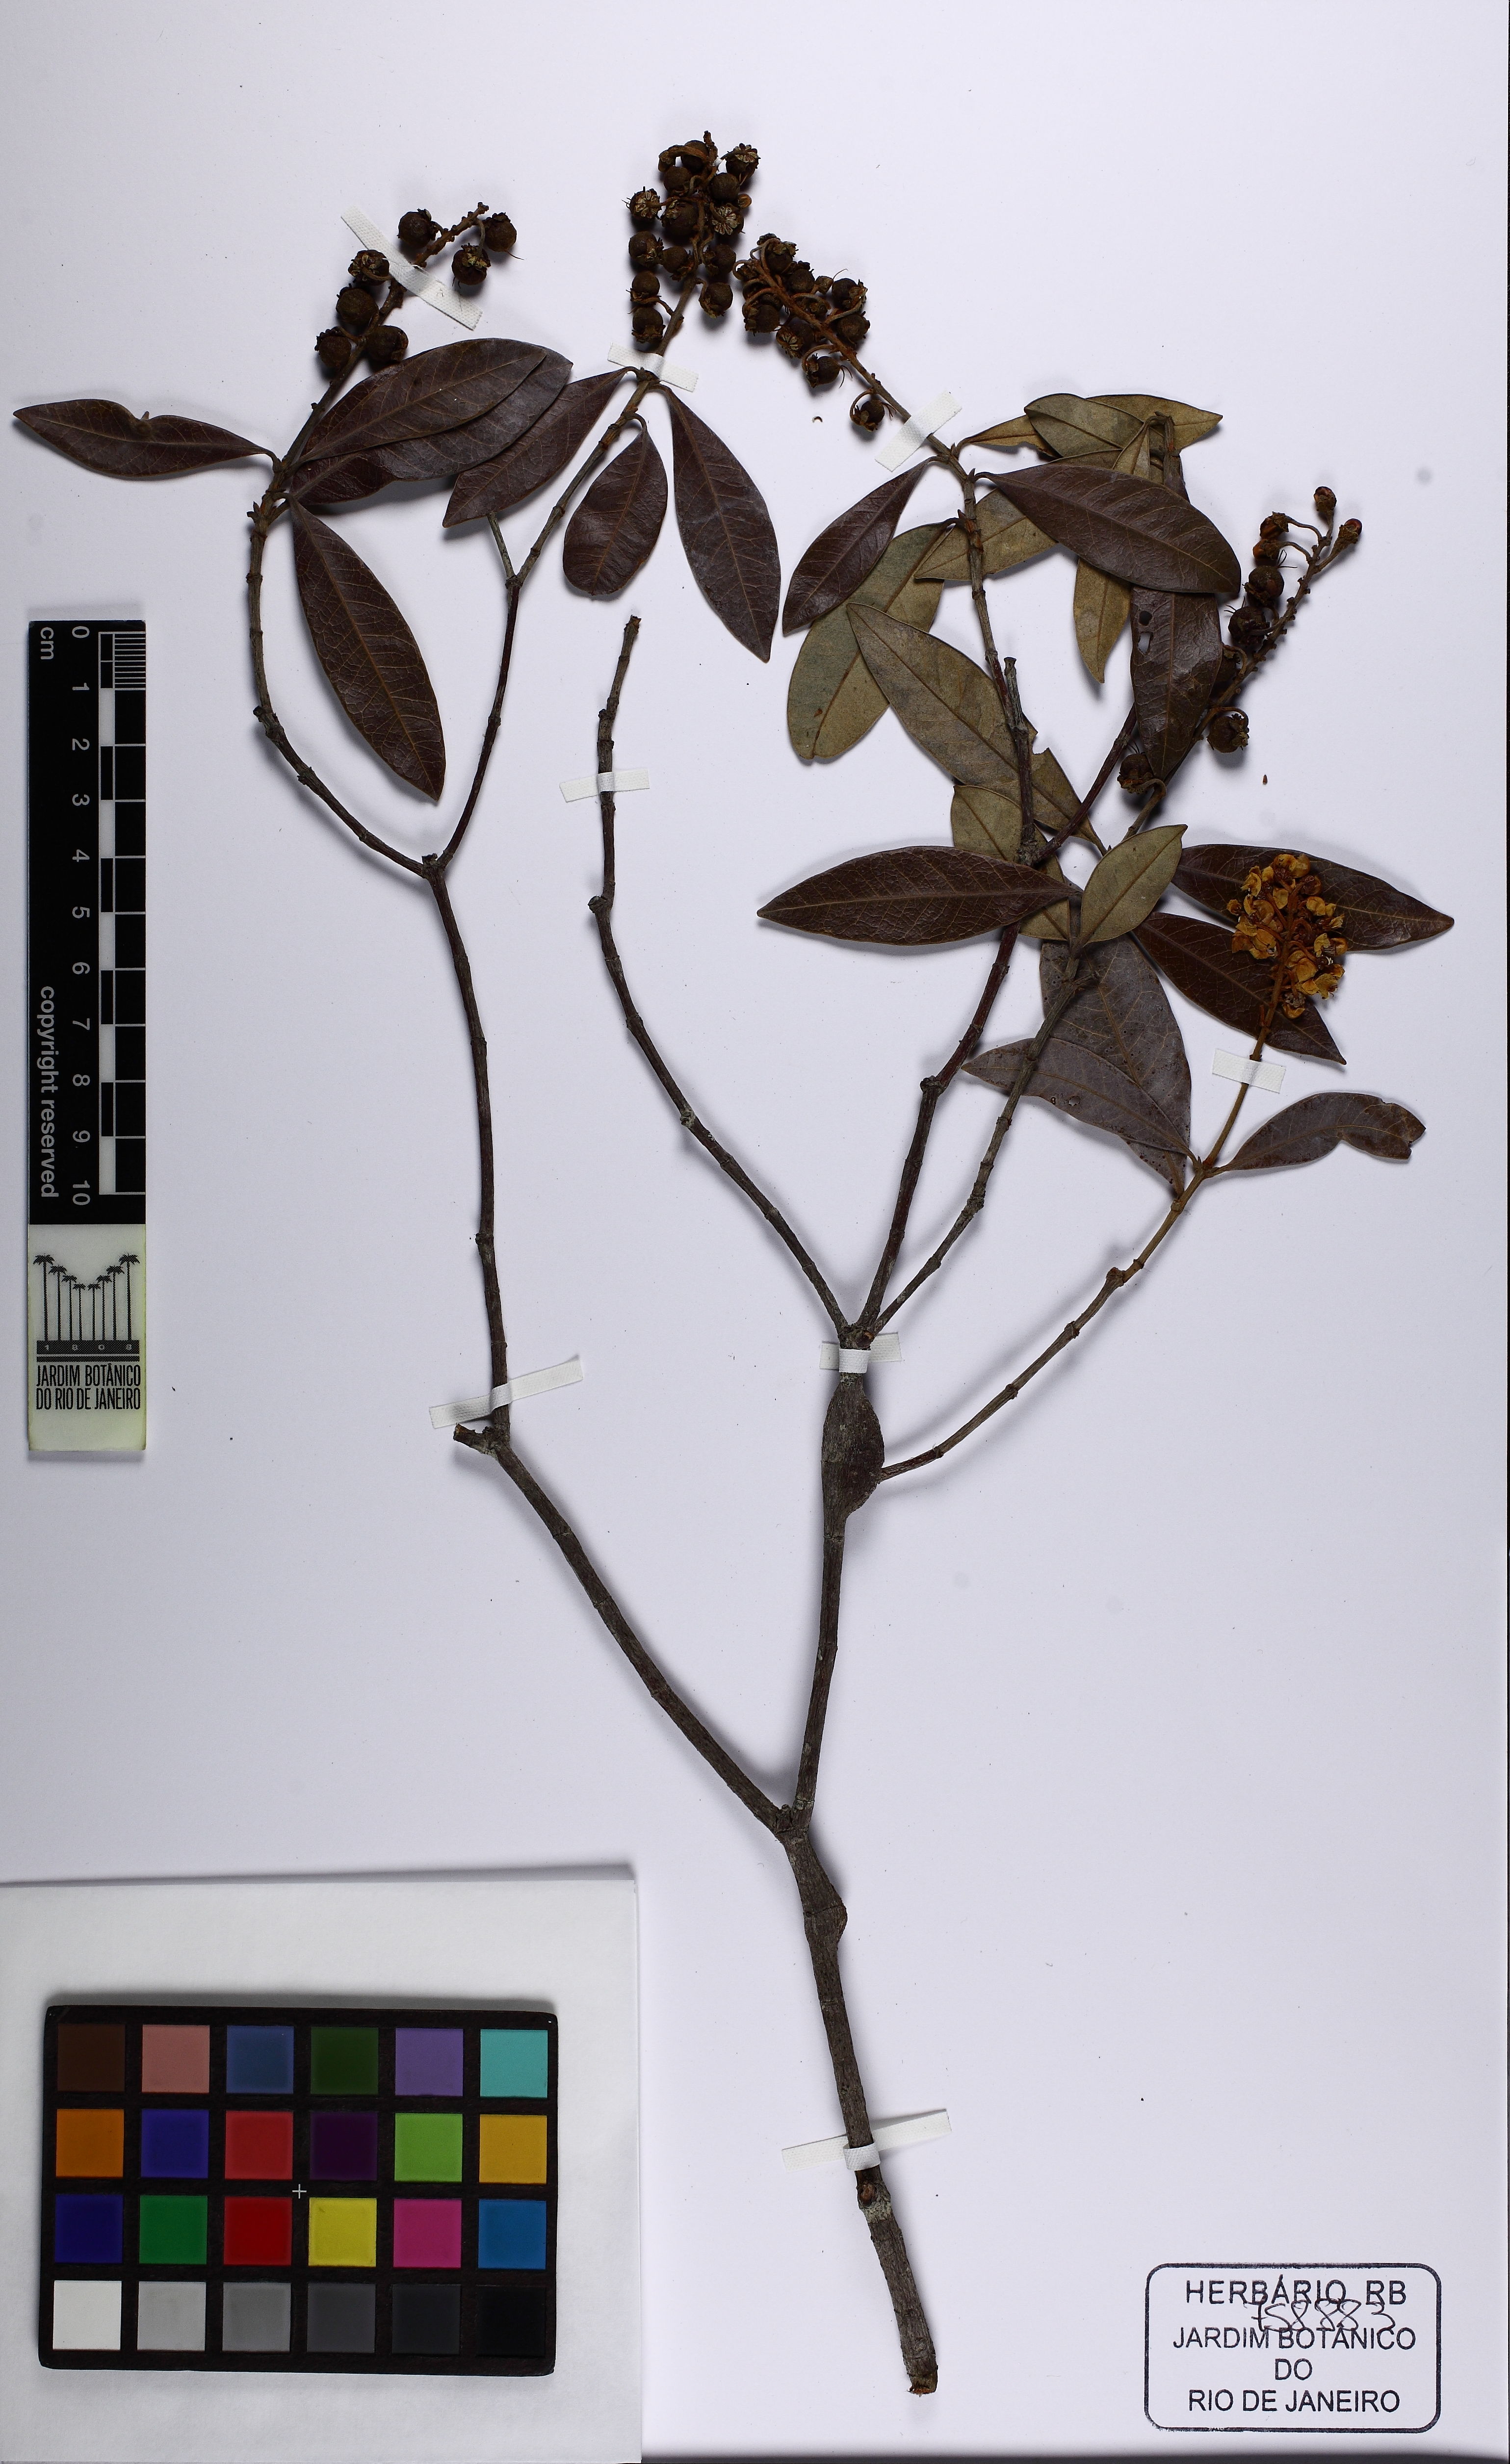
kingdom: Plantae
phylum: Tracheophyta
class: Magnoliopsida
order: Malpighiales
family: Malpighiaceae
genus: Byrsonima
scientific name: Byrsonima
